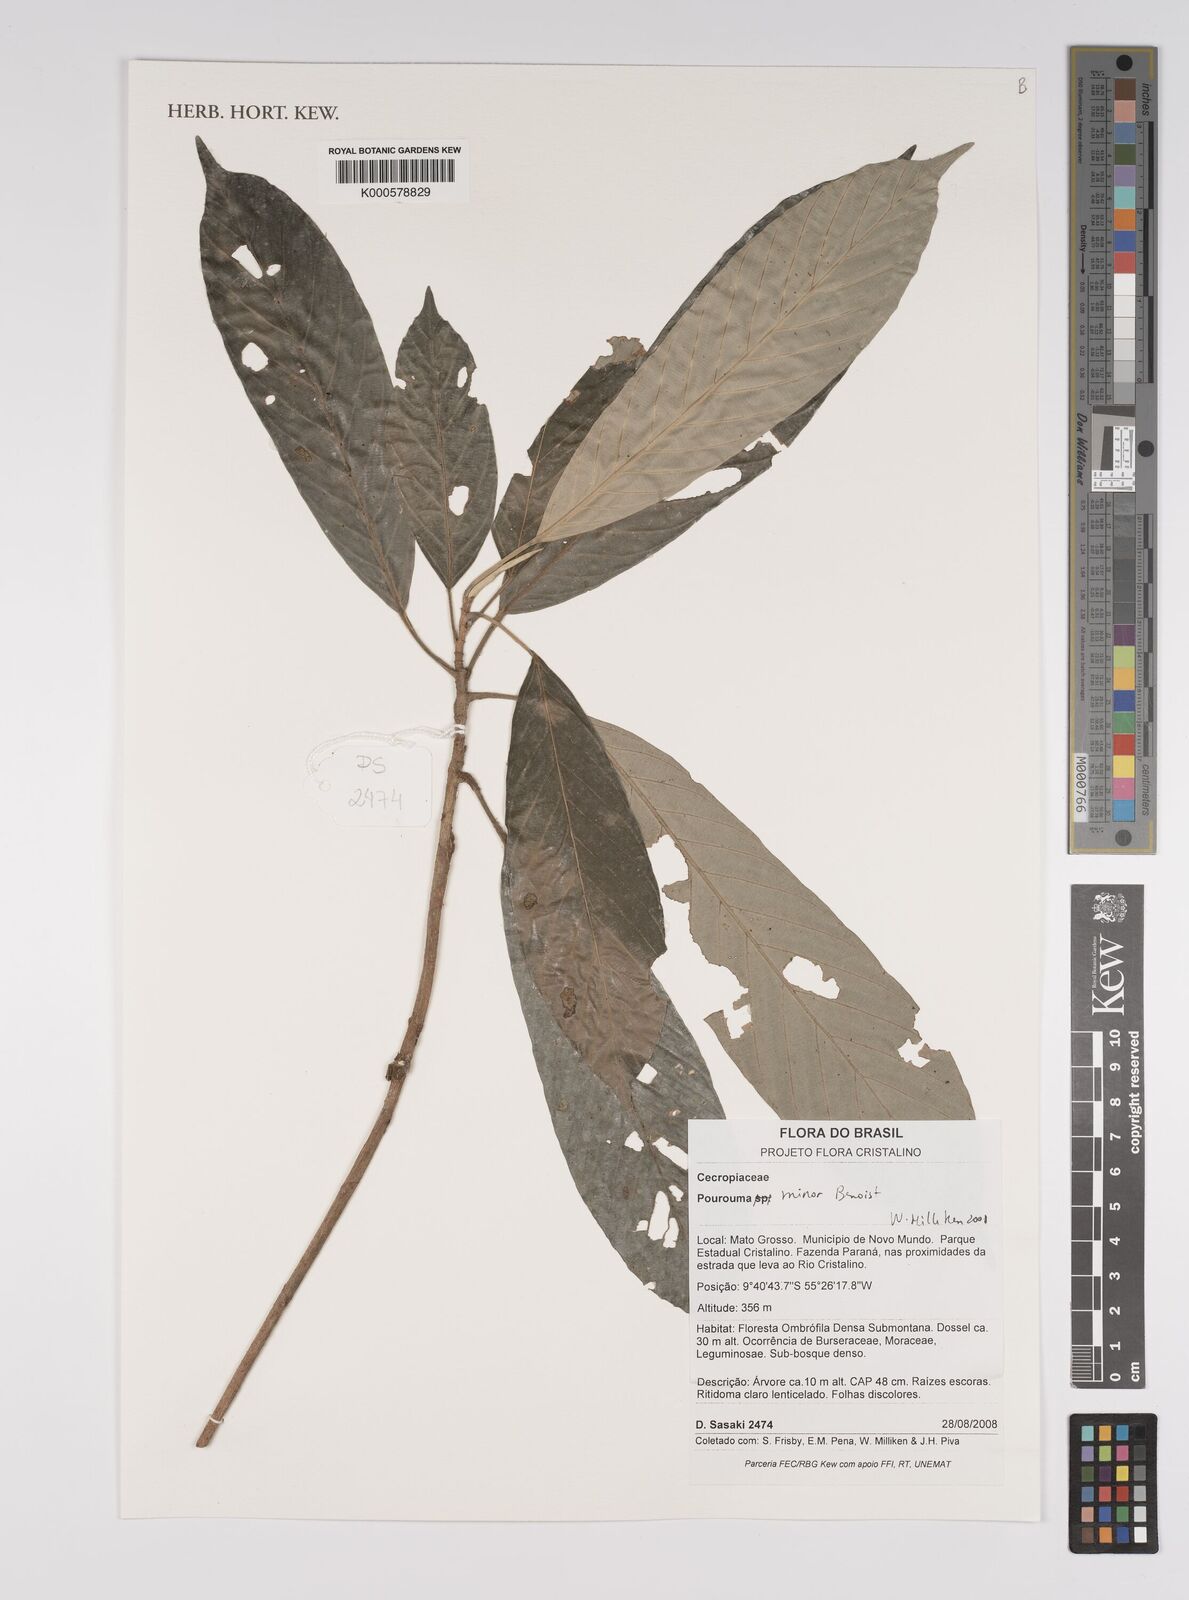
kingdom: Plantae
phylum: Tracheophyta
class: Magnoliopsida
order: Rosales
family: Urticaceae
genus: Pourouma
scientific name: Pourouma minor
